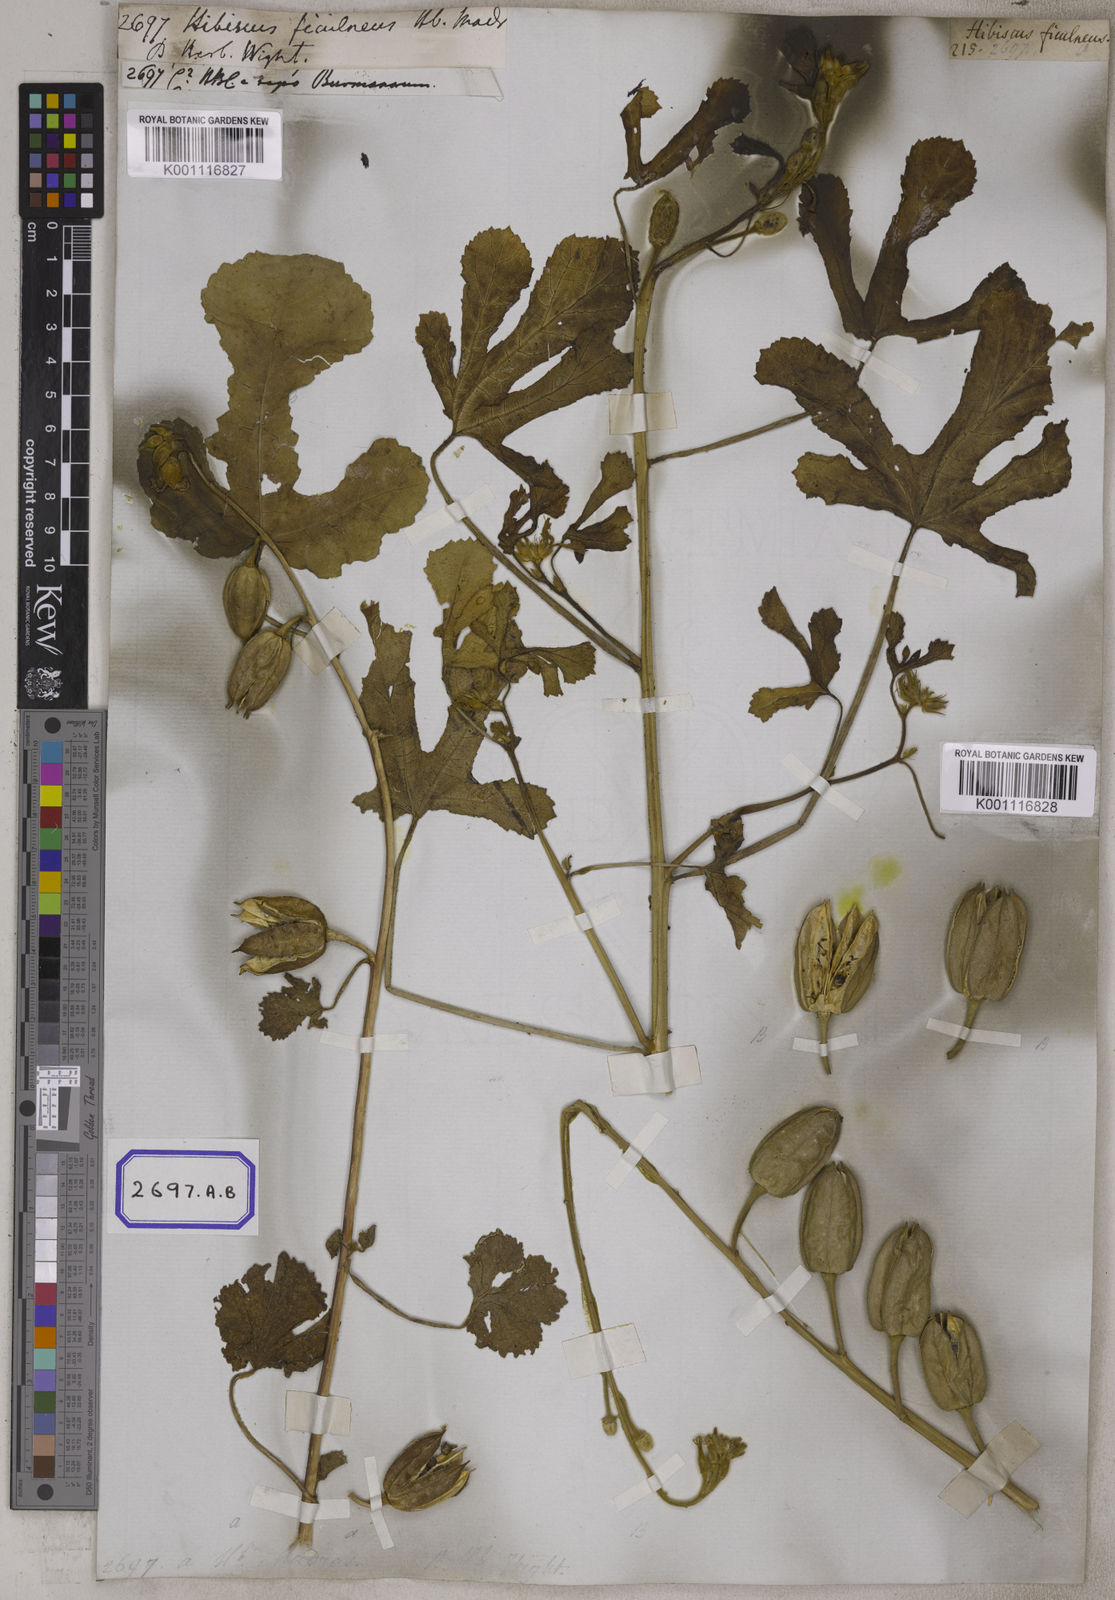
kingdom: Plantae
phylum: Tracheophyta
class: Magnoliopsida
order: Malvales
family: Malvaceae
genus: Abelmoschus
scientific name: Abelmoschus ficulneus
